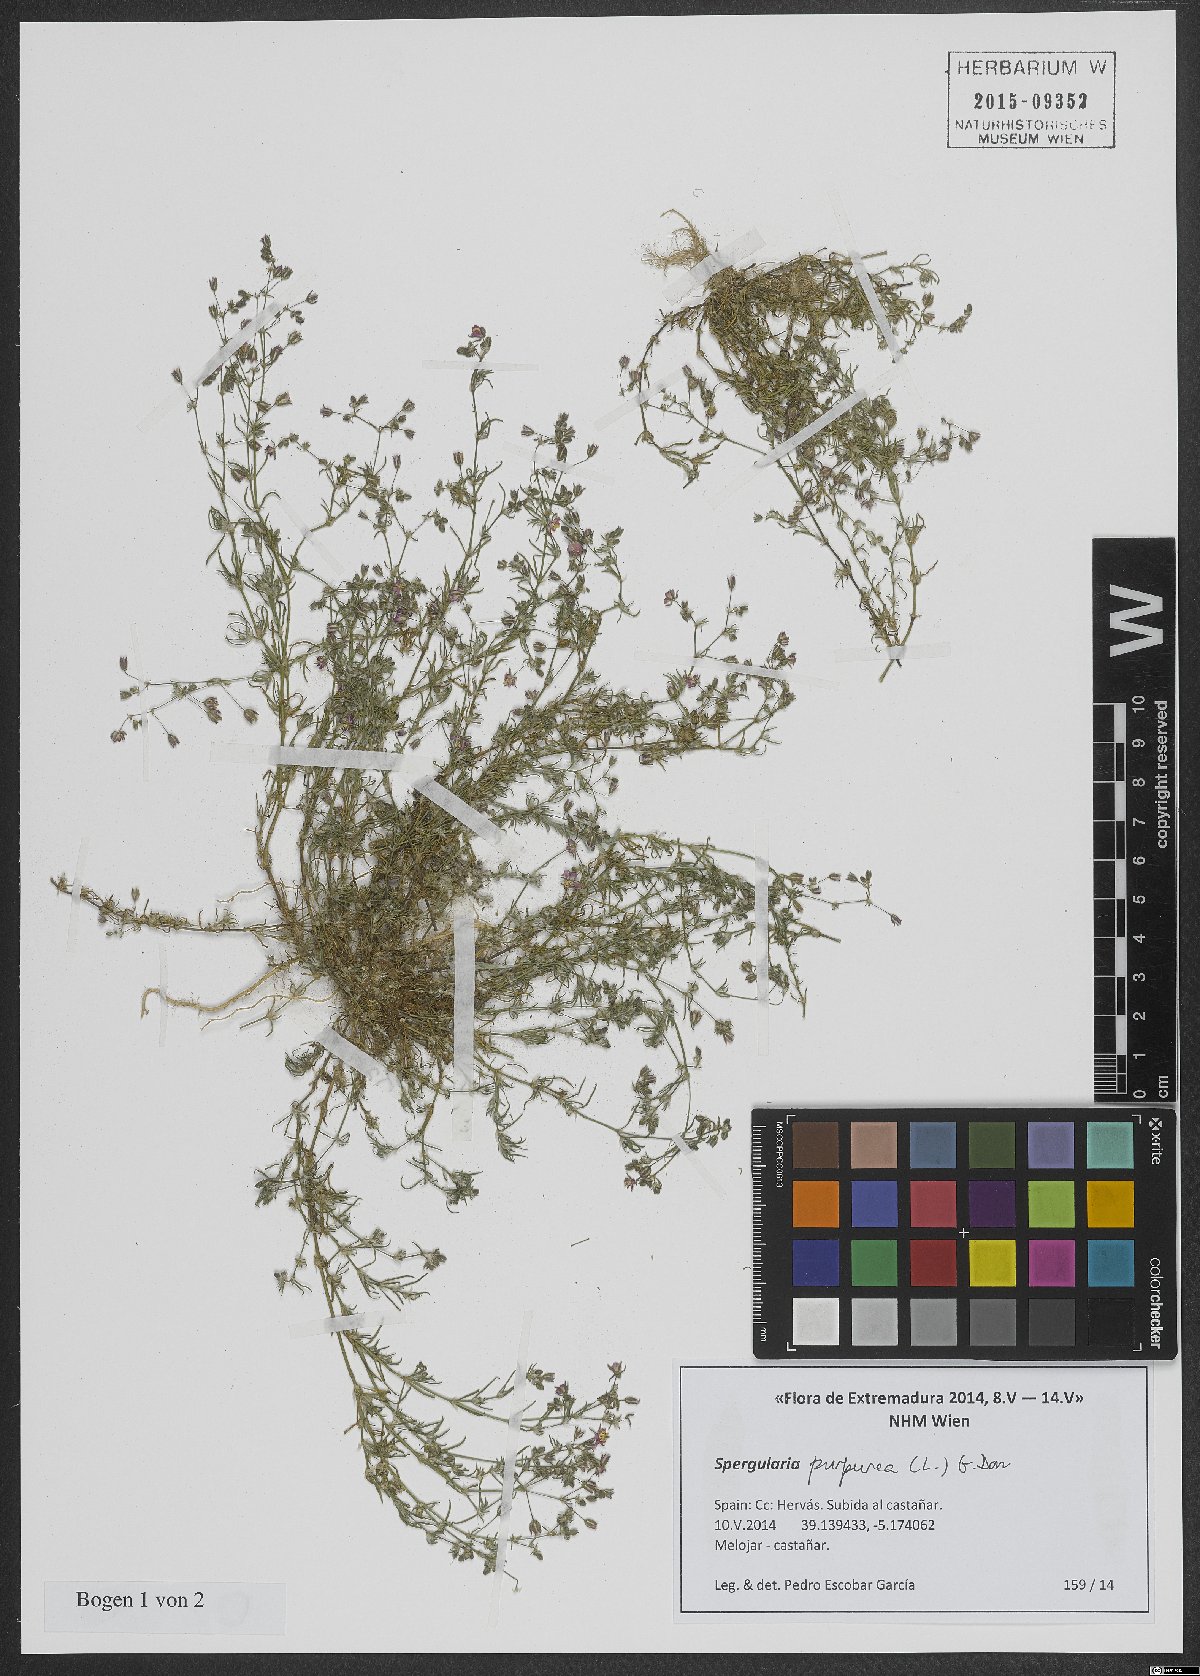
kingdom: Plantae
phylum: Tracheophyta
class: Magnoliopsida
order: Caryophyllales
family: Caryophyllaceae
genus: Spergularia
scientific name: Spergularia purpurea
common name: Purple sandspurry
